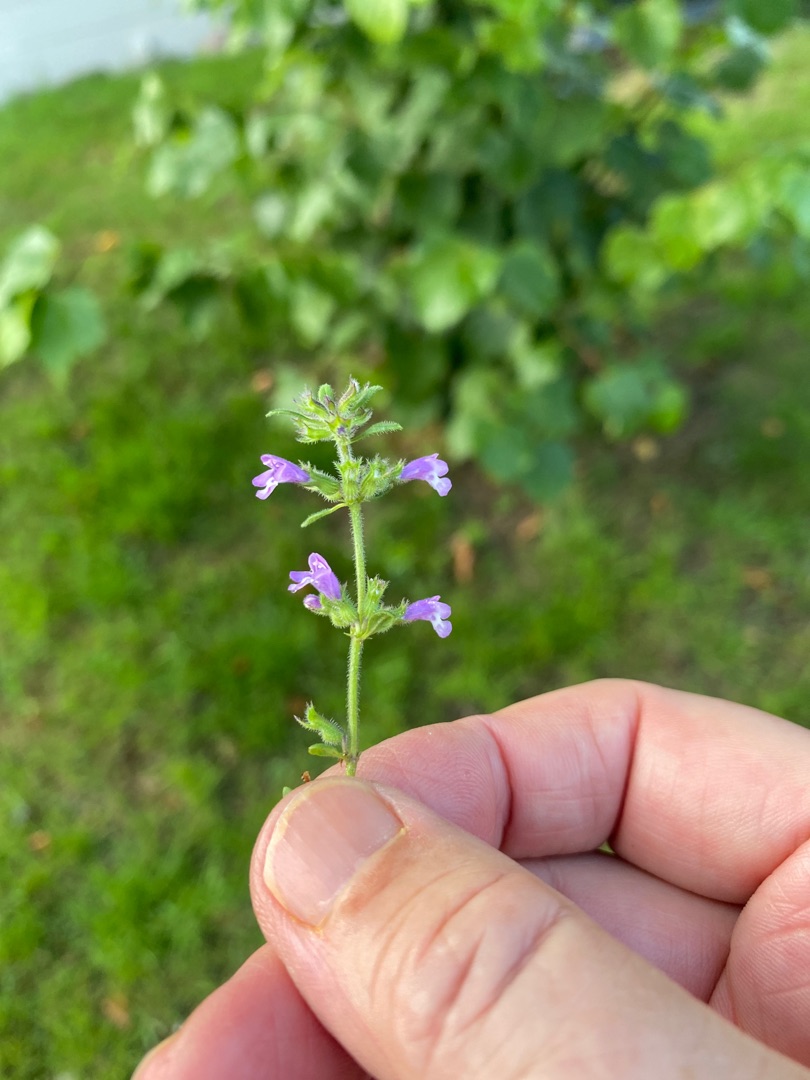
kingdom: Plantae
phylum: Tracheophyta
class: Magnoliopsida
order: Lamiales
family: Lamiaceae
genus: Clinopodium
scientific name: Clinopodium acinos
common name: Voldtimian
